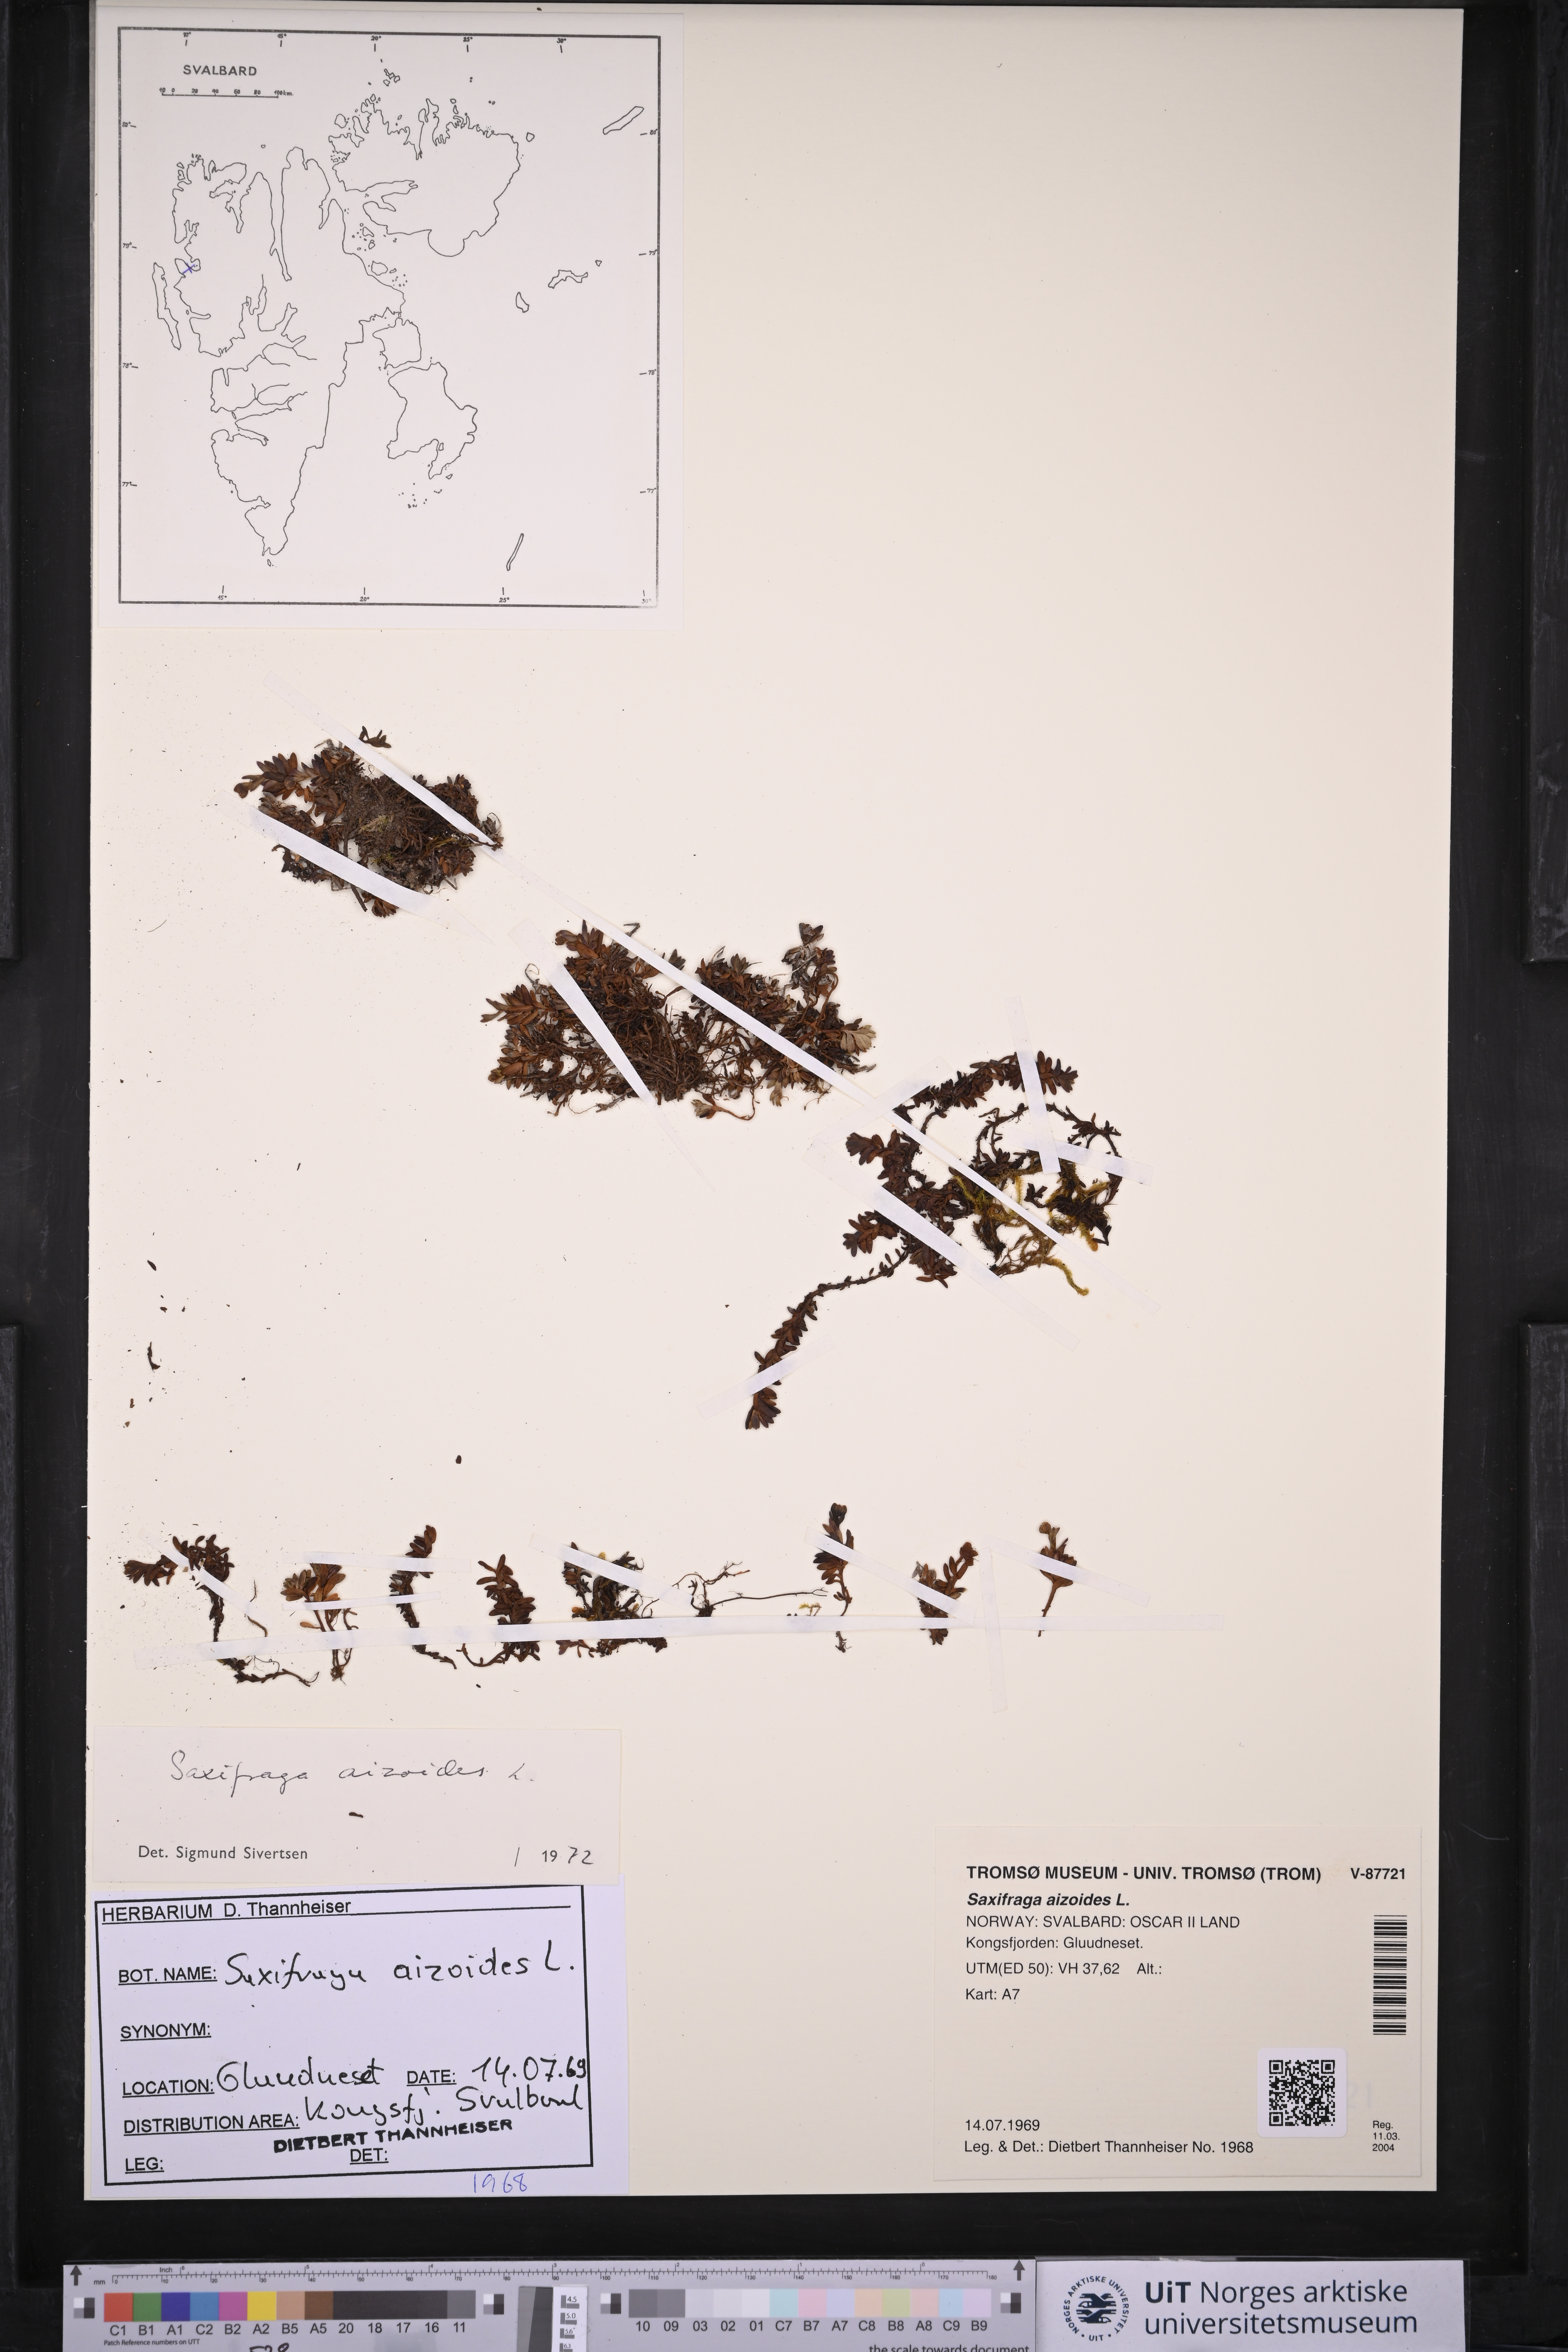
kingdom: Plantae
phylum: Tracheophyta
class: Magnoliopsida
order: Saxifragales
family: Saxifragaceae
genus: Saxifraga
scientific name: Saxifraga aizoides
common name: Yellow mountain saxifrage
